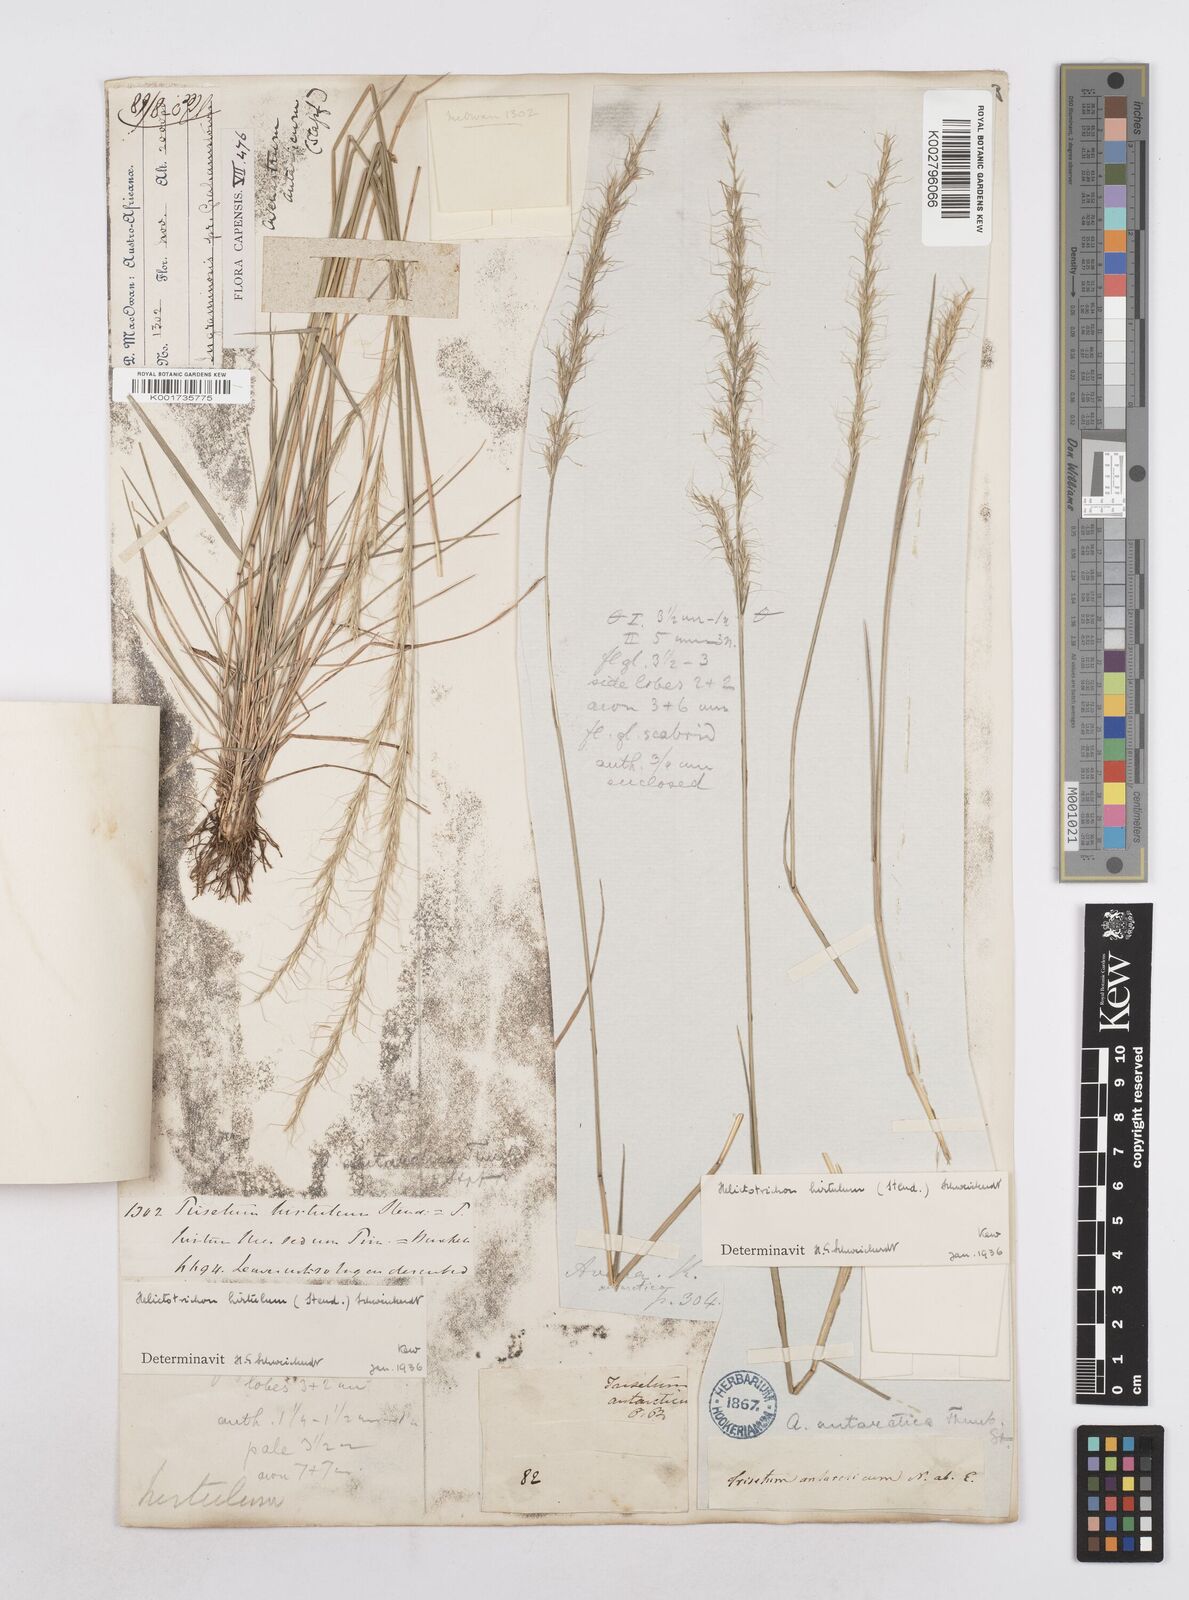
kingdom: Plantae
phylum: Tracheophyta
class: Liliopsida
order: Poales
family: Poaceae
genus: Trisetopsis
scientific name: Trisetopsis hirtula
